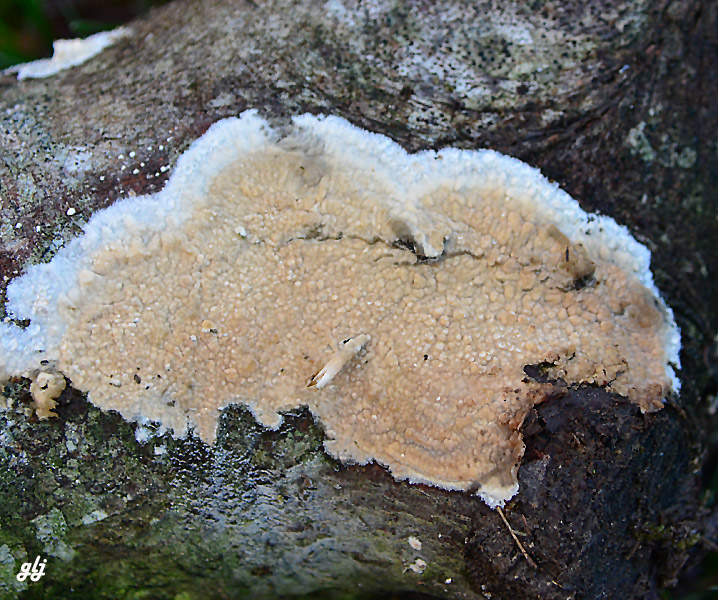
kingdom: Fungi
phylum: Basidiomycota
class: Agaricomycetes
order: Corticiales
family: Corticiaceae
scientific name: Corticiaceae
